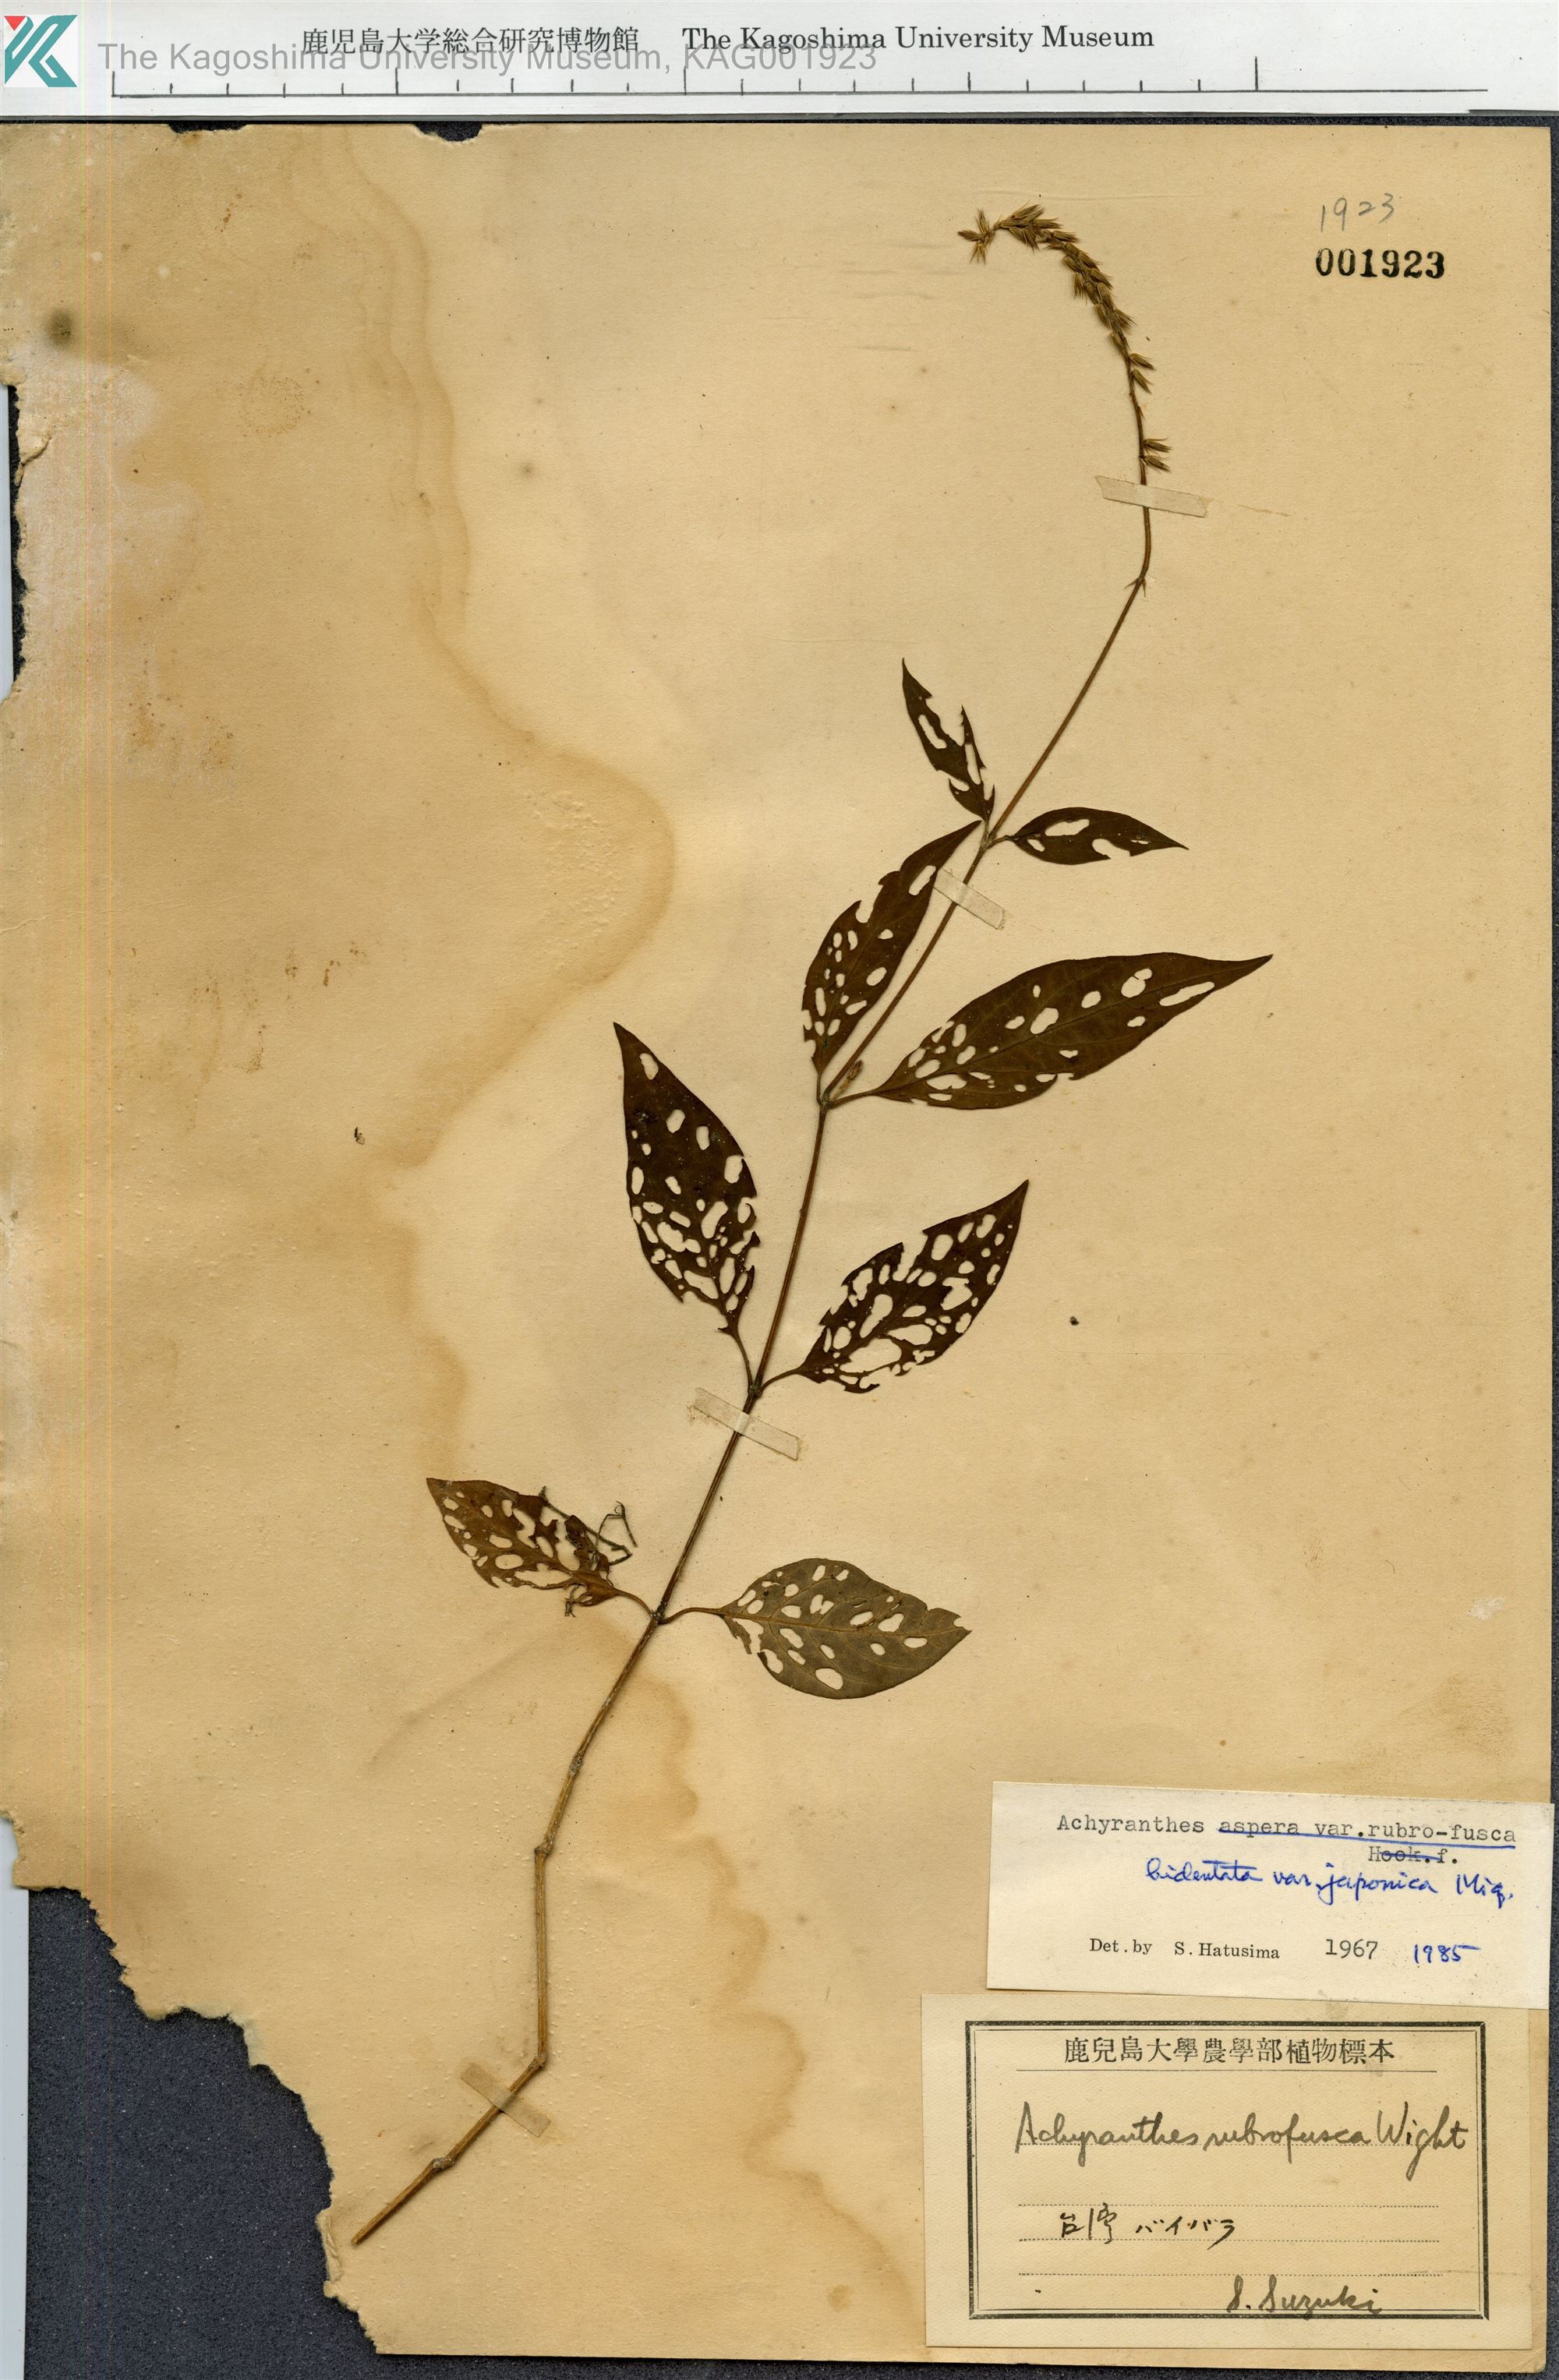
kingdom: Plantae
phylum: Tracheophyta
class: Magnoliopsida
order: Caryophyllales
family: Amaranthaceae
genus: Achyranthes
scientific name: Achyranthes bidentata
